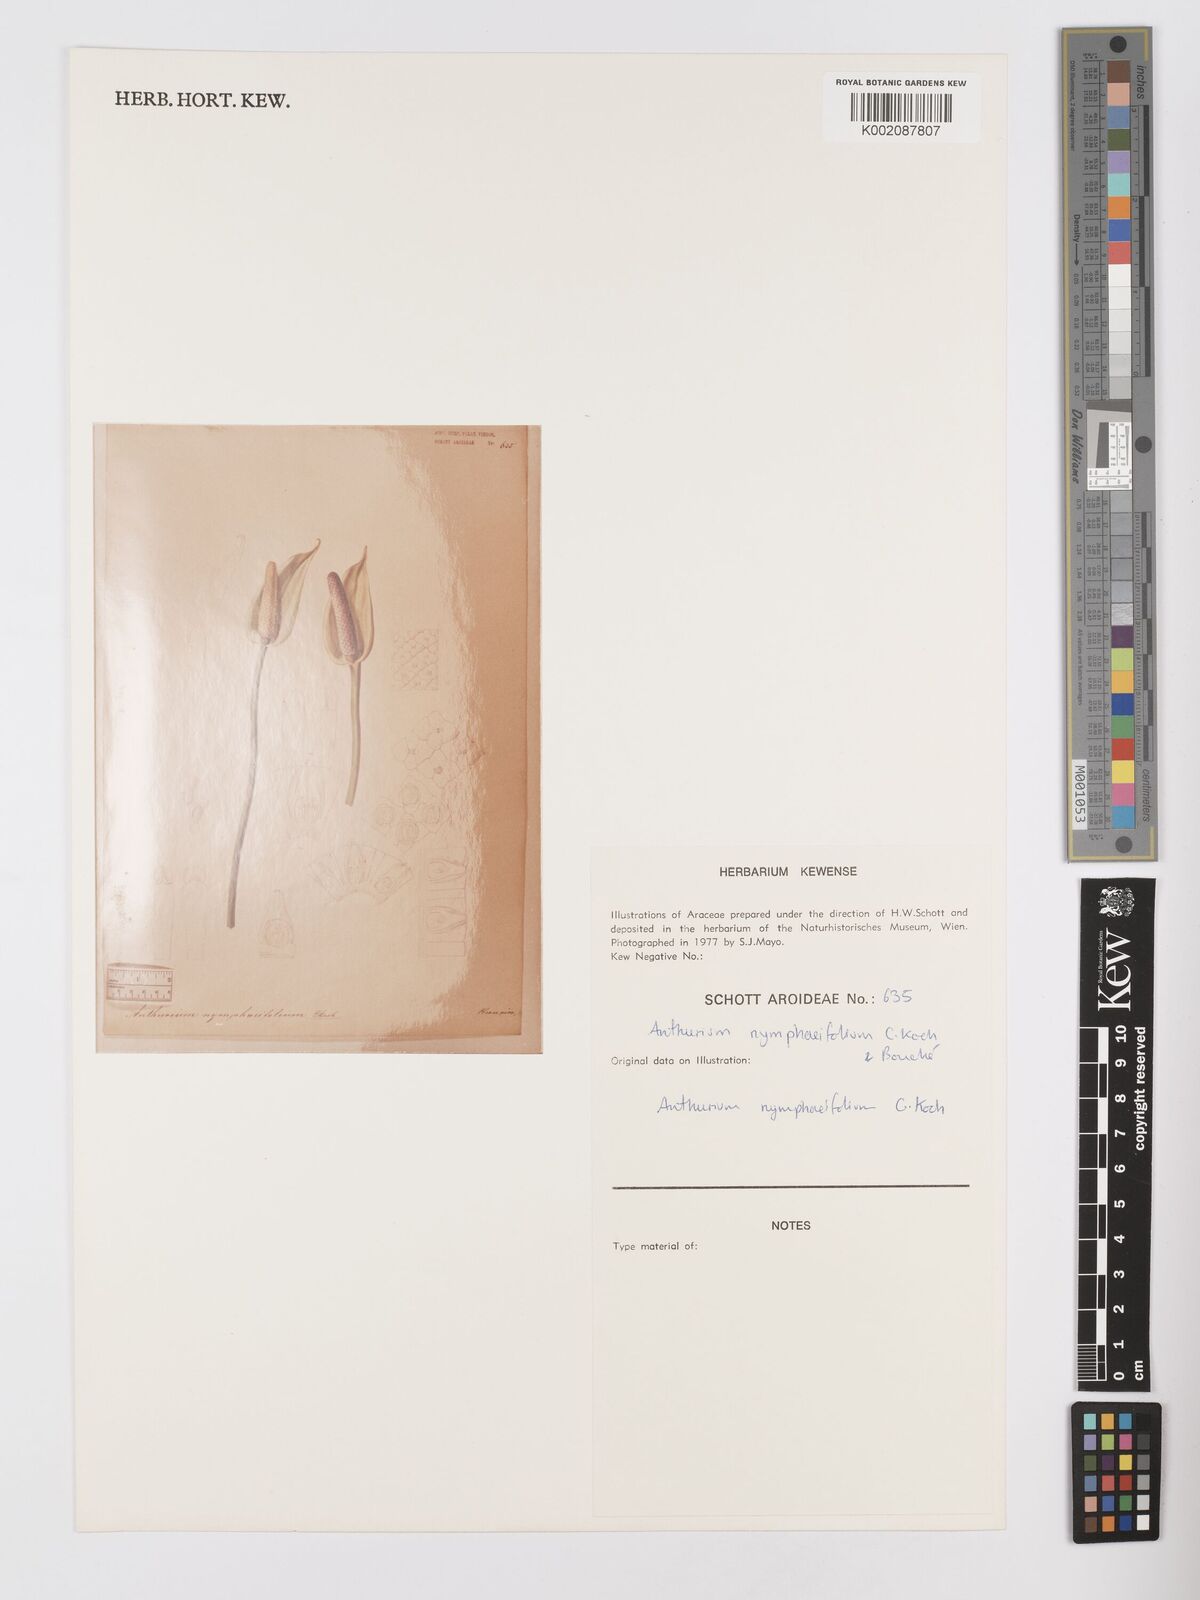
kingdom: Plantae
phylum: Tracheophyta
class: Liliopsida
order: Alismatales
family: Araceae
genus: Anthurium
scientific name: Anthurium nymphaeifolium
